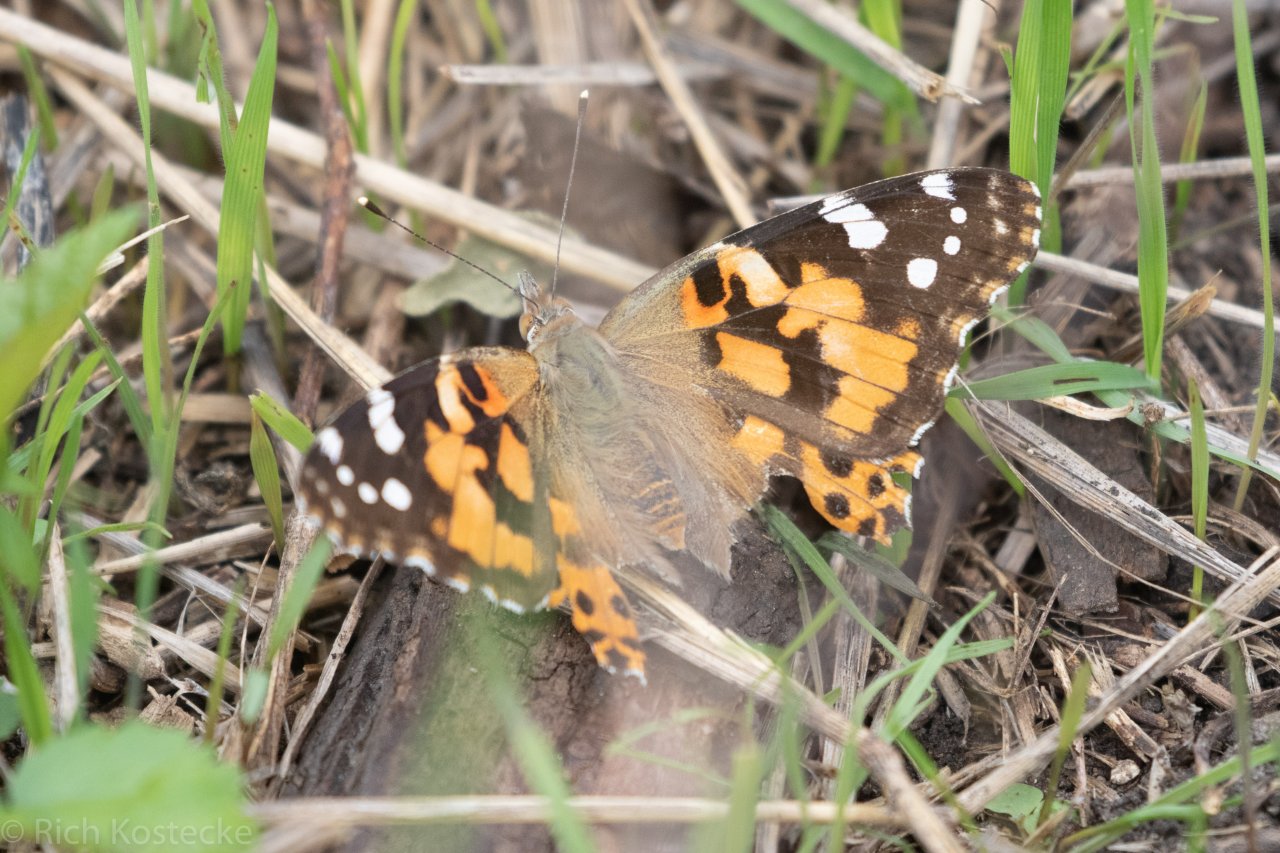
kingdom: Animalia
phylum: Arthropoda
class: Insecta
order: Lepidoptera
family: Nymphalidae
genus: Vanessa
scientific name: Vanessa cardui
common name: Painted Lady
